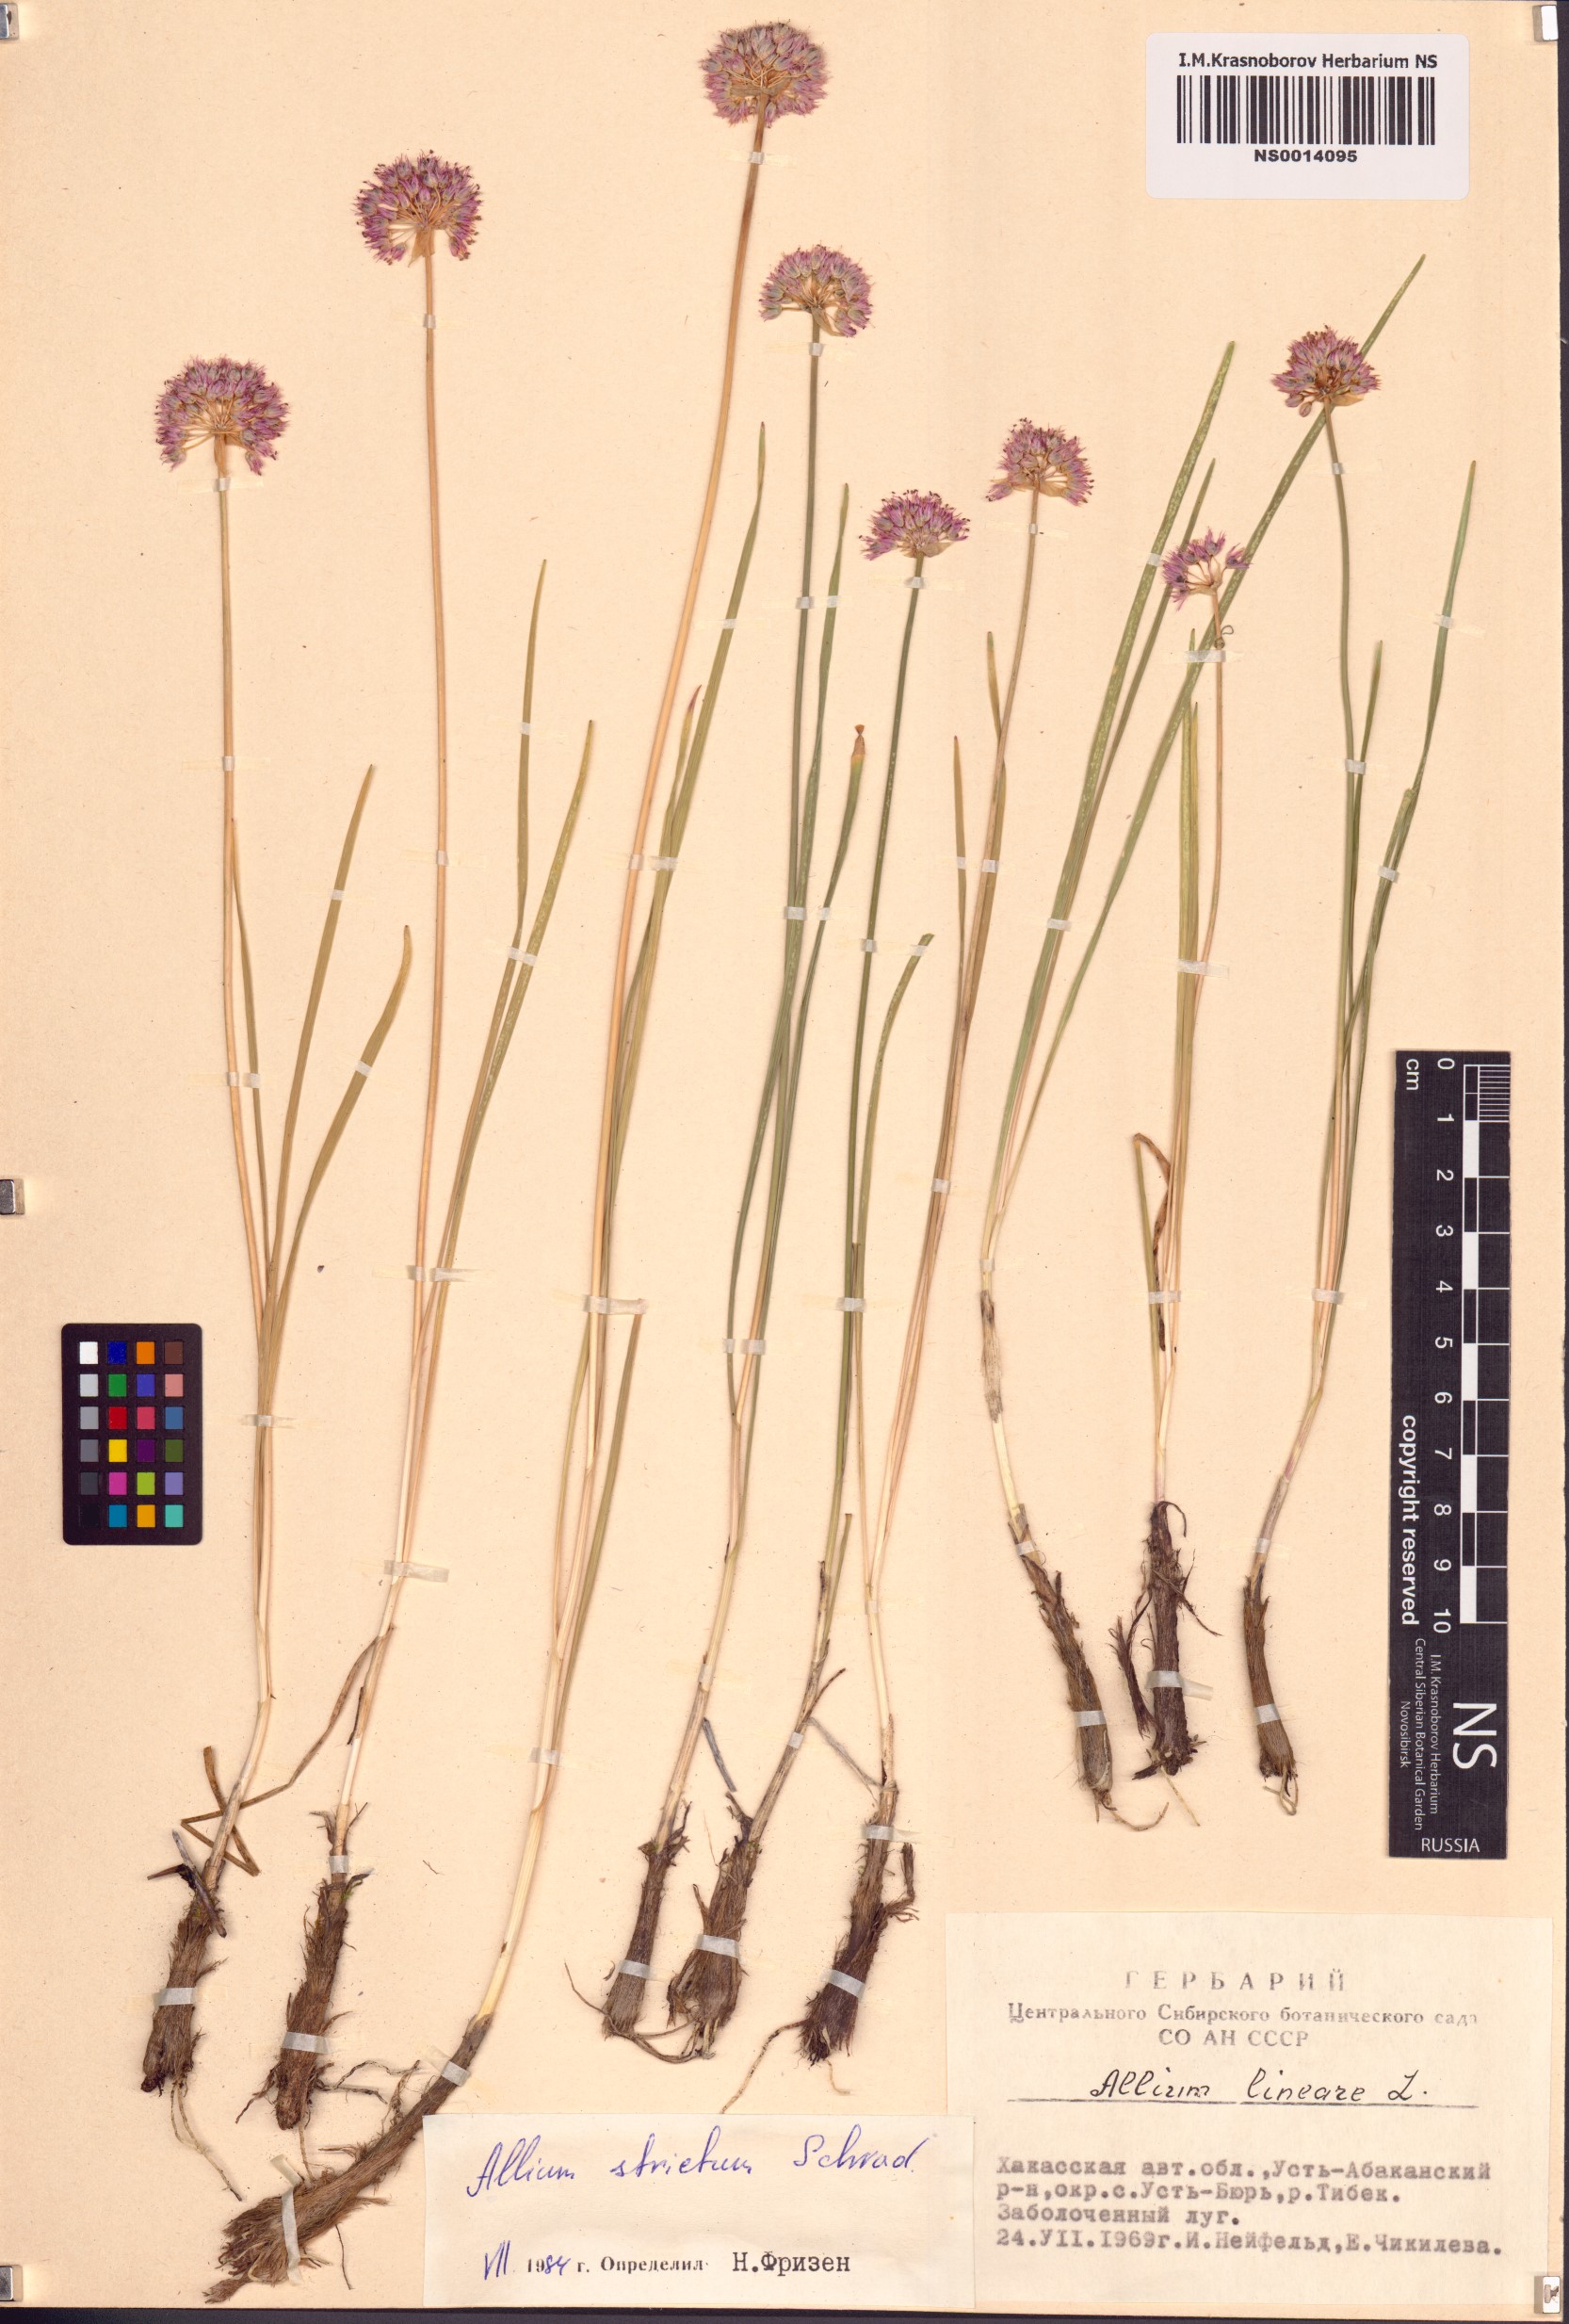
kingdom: Plantae
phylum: Tracheophyta
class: Liliopsida
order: Asparagales
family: Amaryllidaceae
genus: Allium
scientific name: Allium strictum
